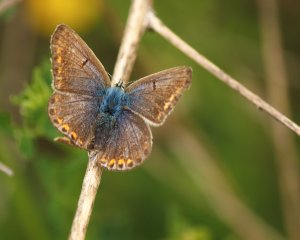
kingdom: Animalia
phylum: Arthropoda
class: Insecta
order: Lepidoptera
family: Lycaenidae
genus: Polyommatus
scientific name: Polyommatus icarus
